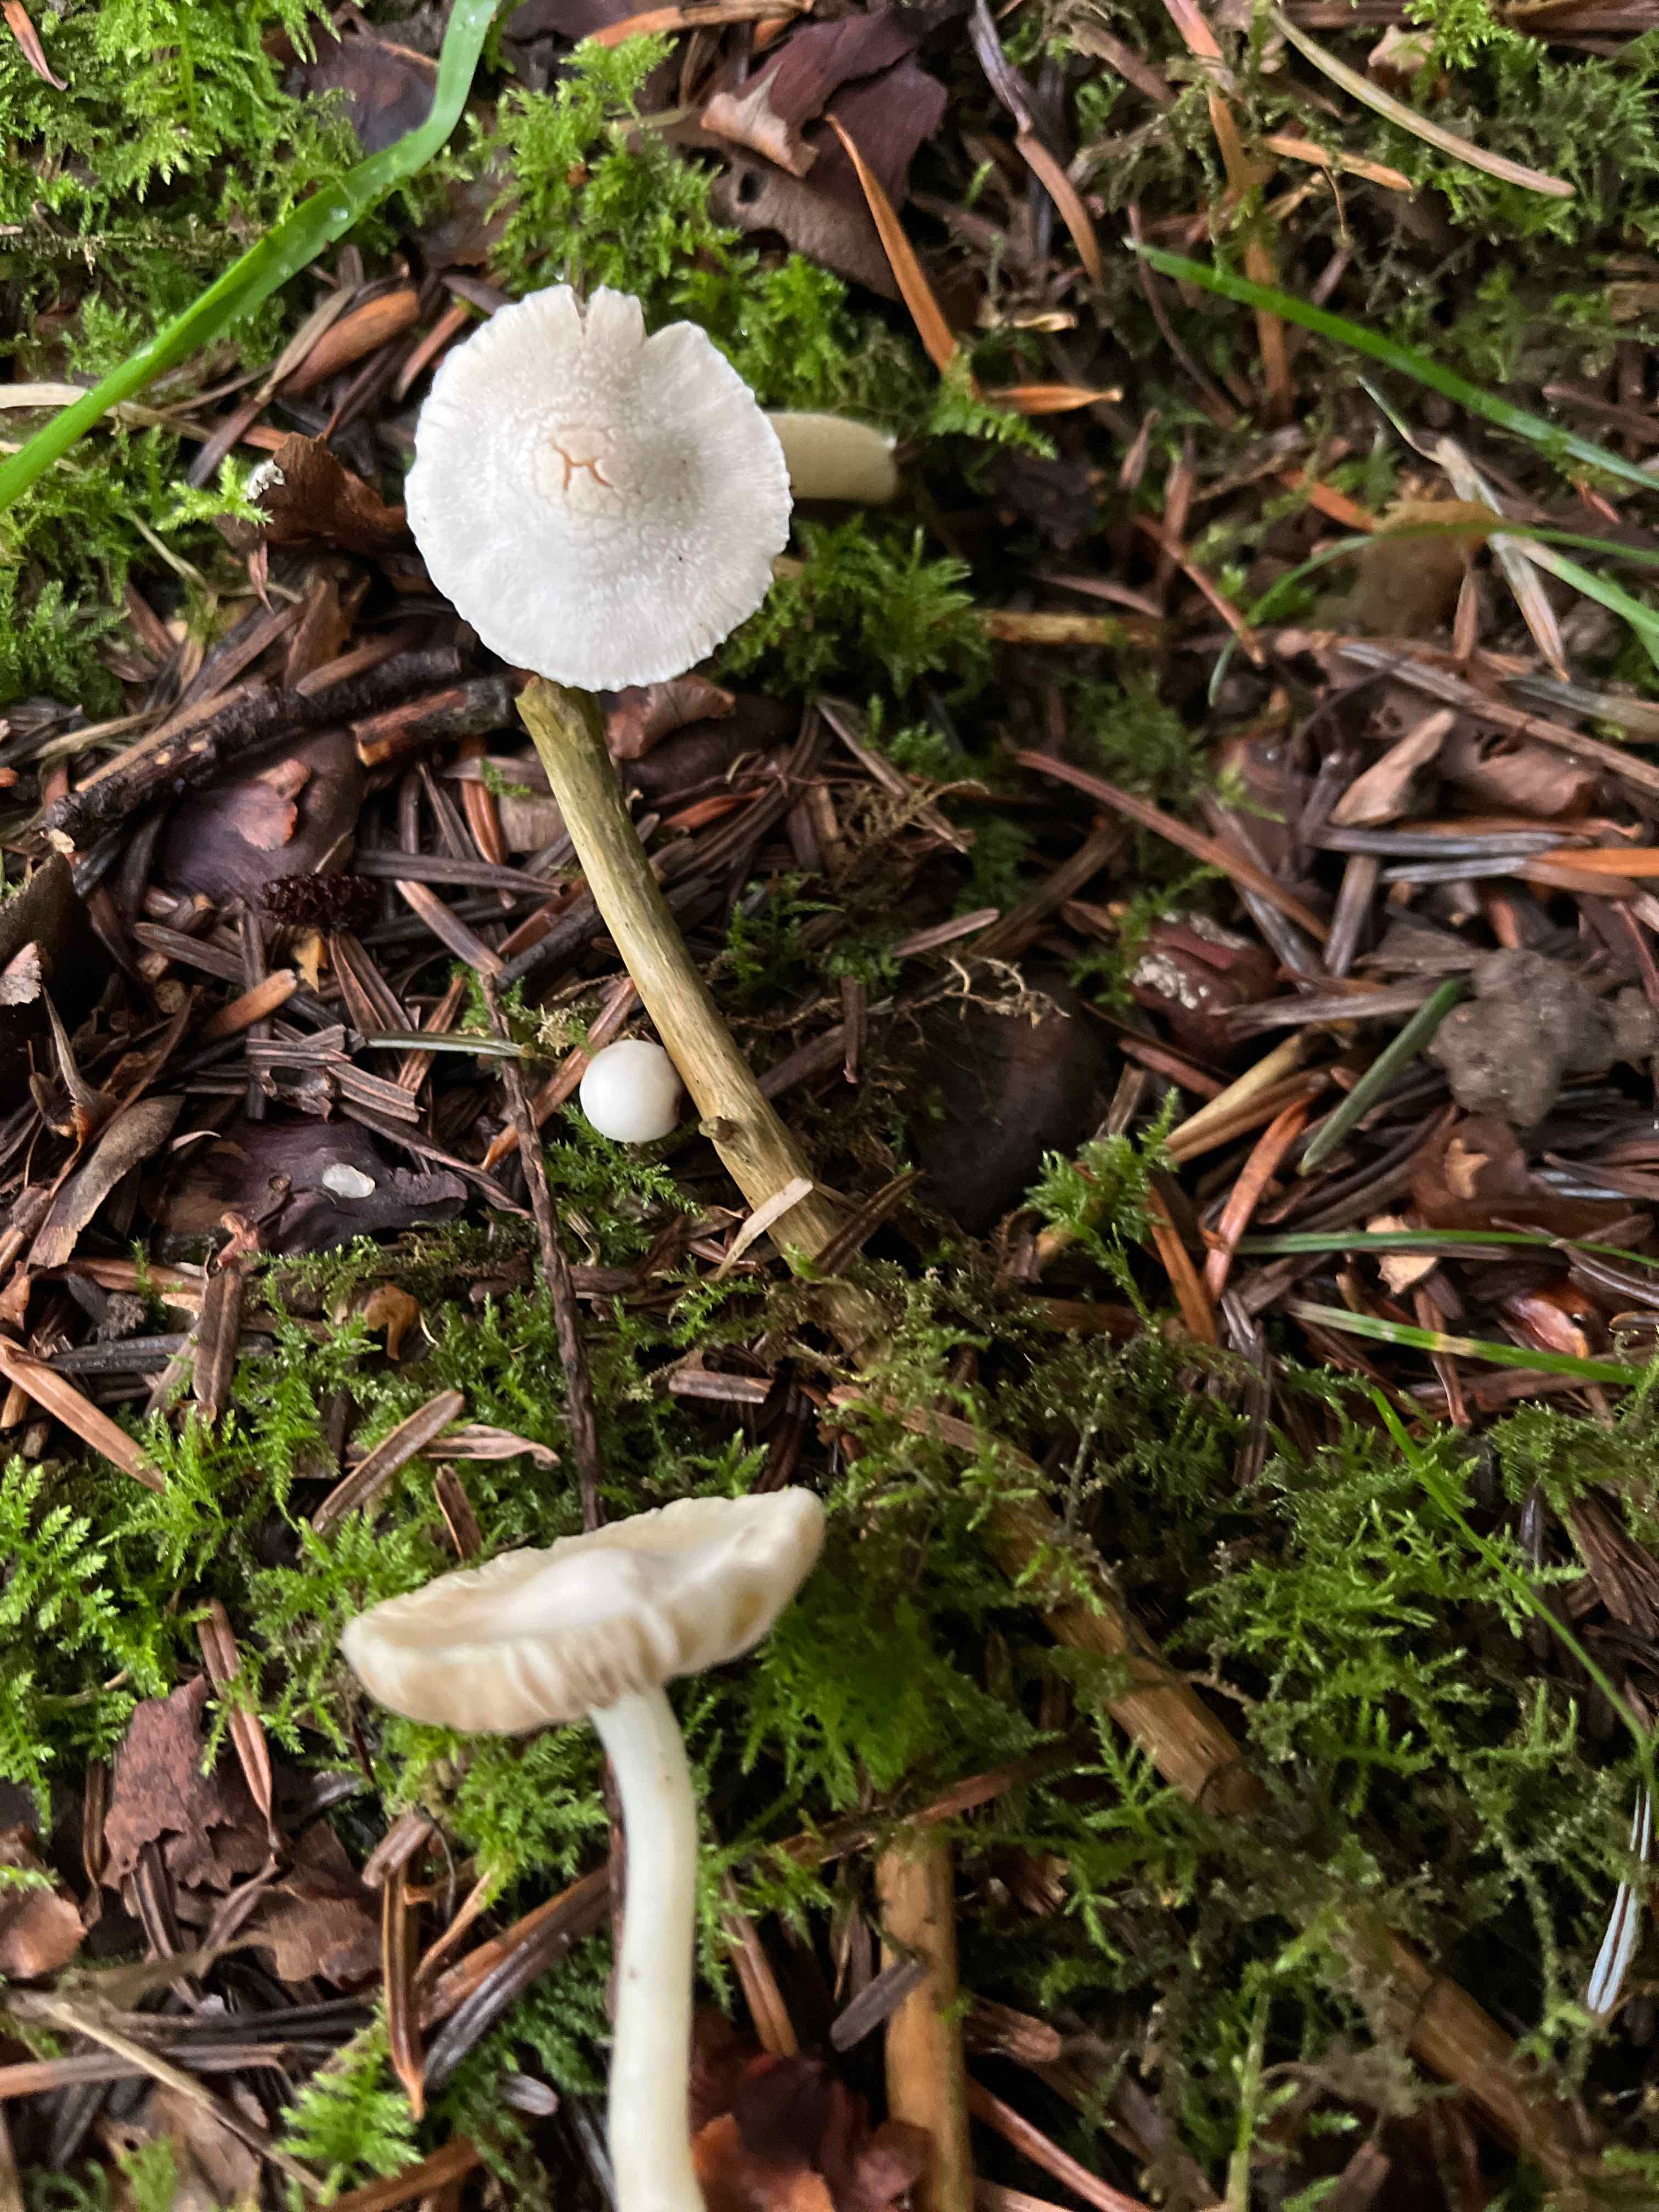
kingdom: Fungi
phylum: Basidiomycota
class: Agaricomycetes
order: Agaricales
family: Inocybaceae
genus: Inocybe
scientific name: Inocybe
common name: almindelig trævlhat
